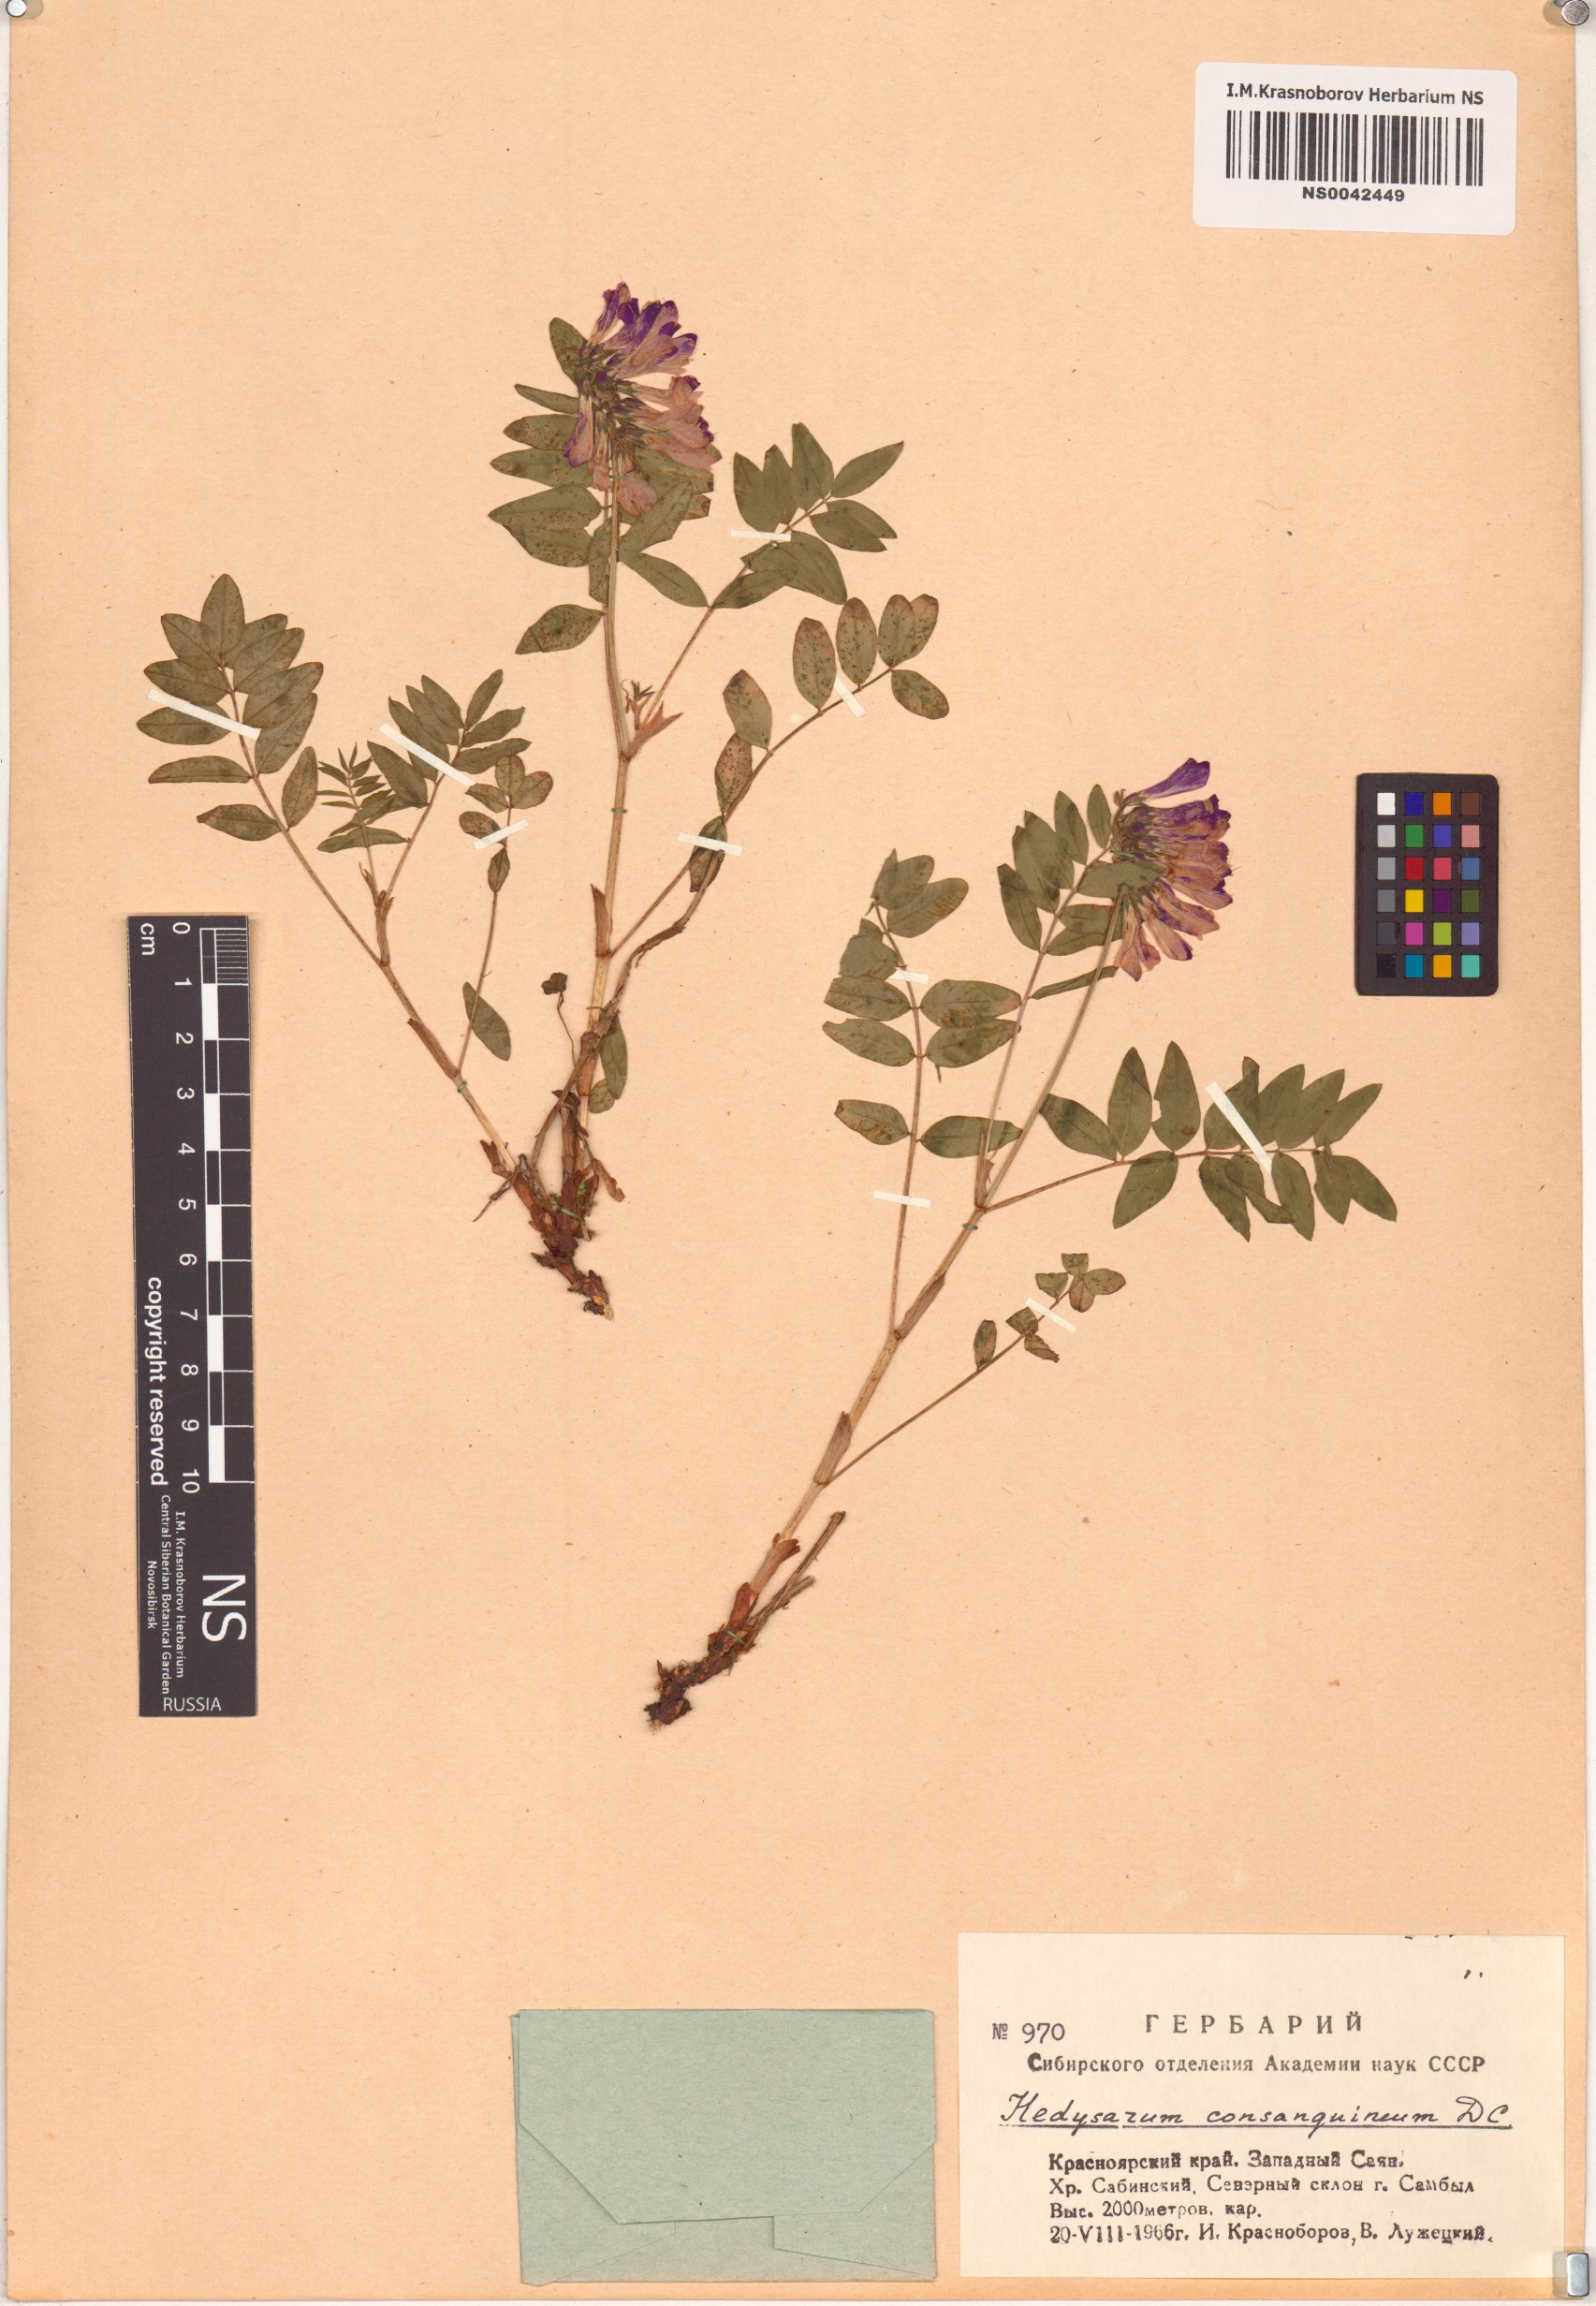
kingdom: Plantae
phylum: Tracheophyta
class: Magnoliopsida
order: Fabales
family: Fabaceae
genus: Hedysarum
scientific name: Hedysarum consanguineum
